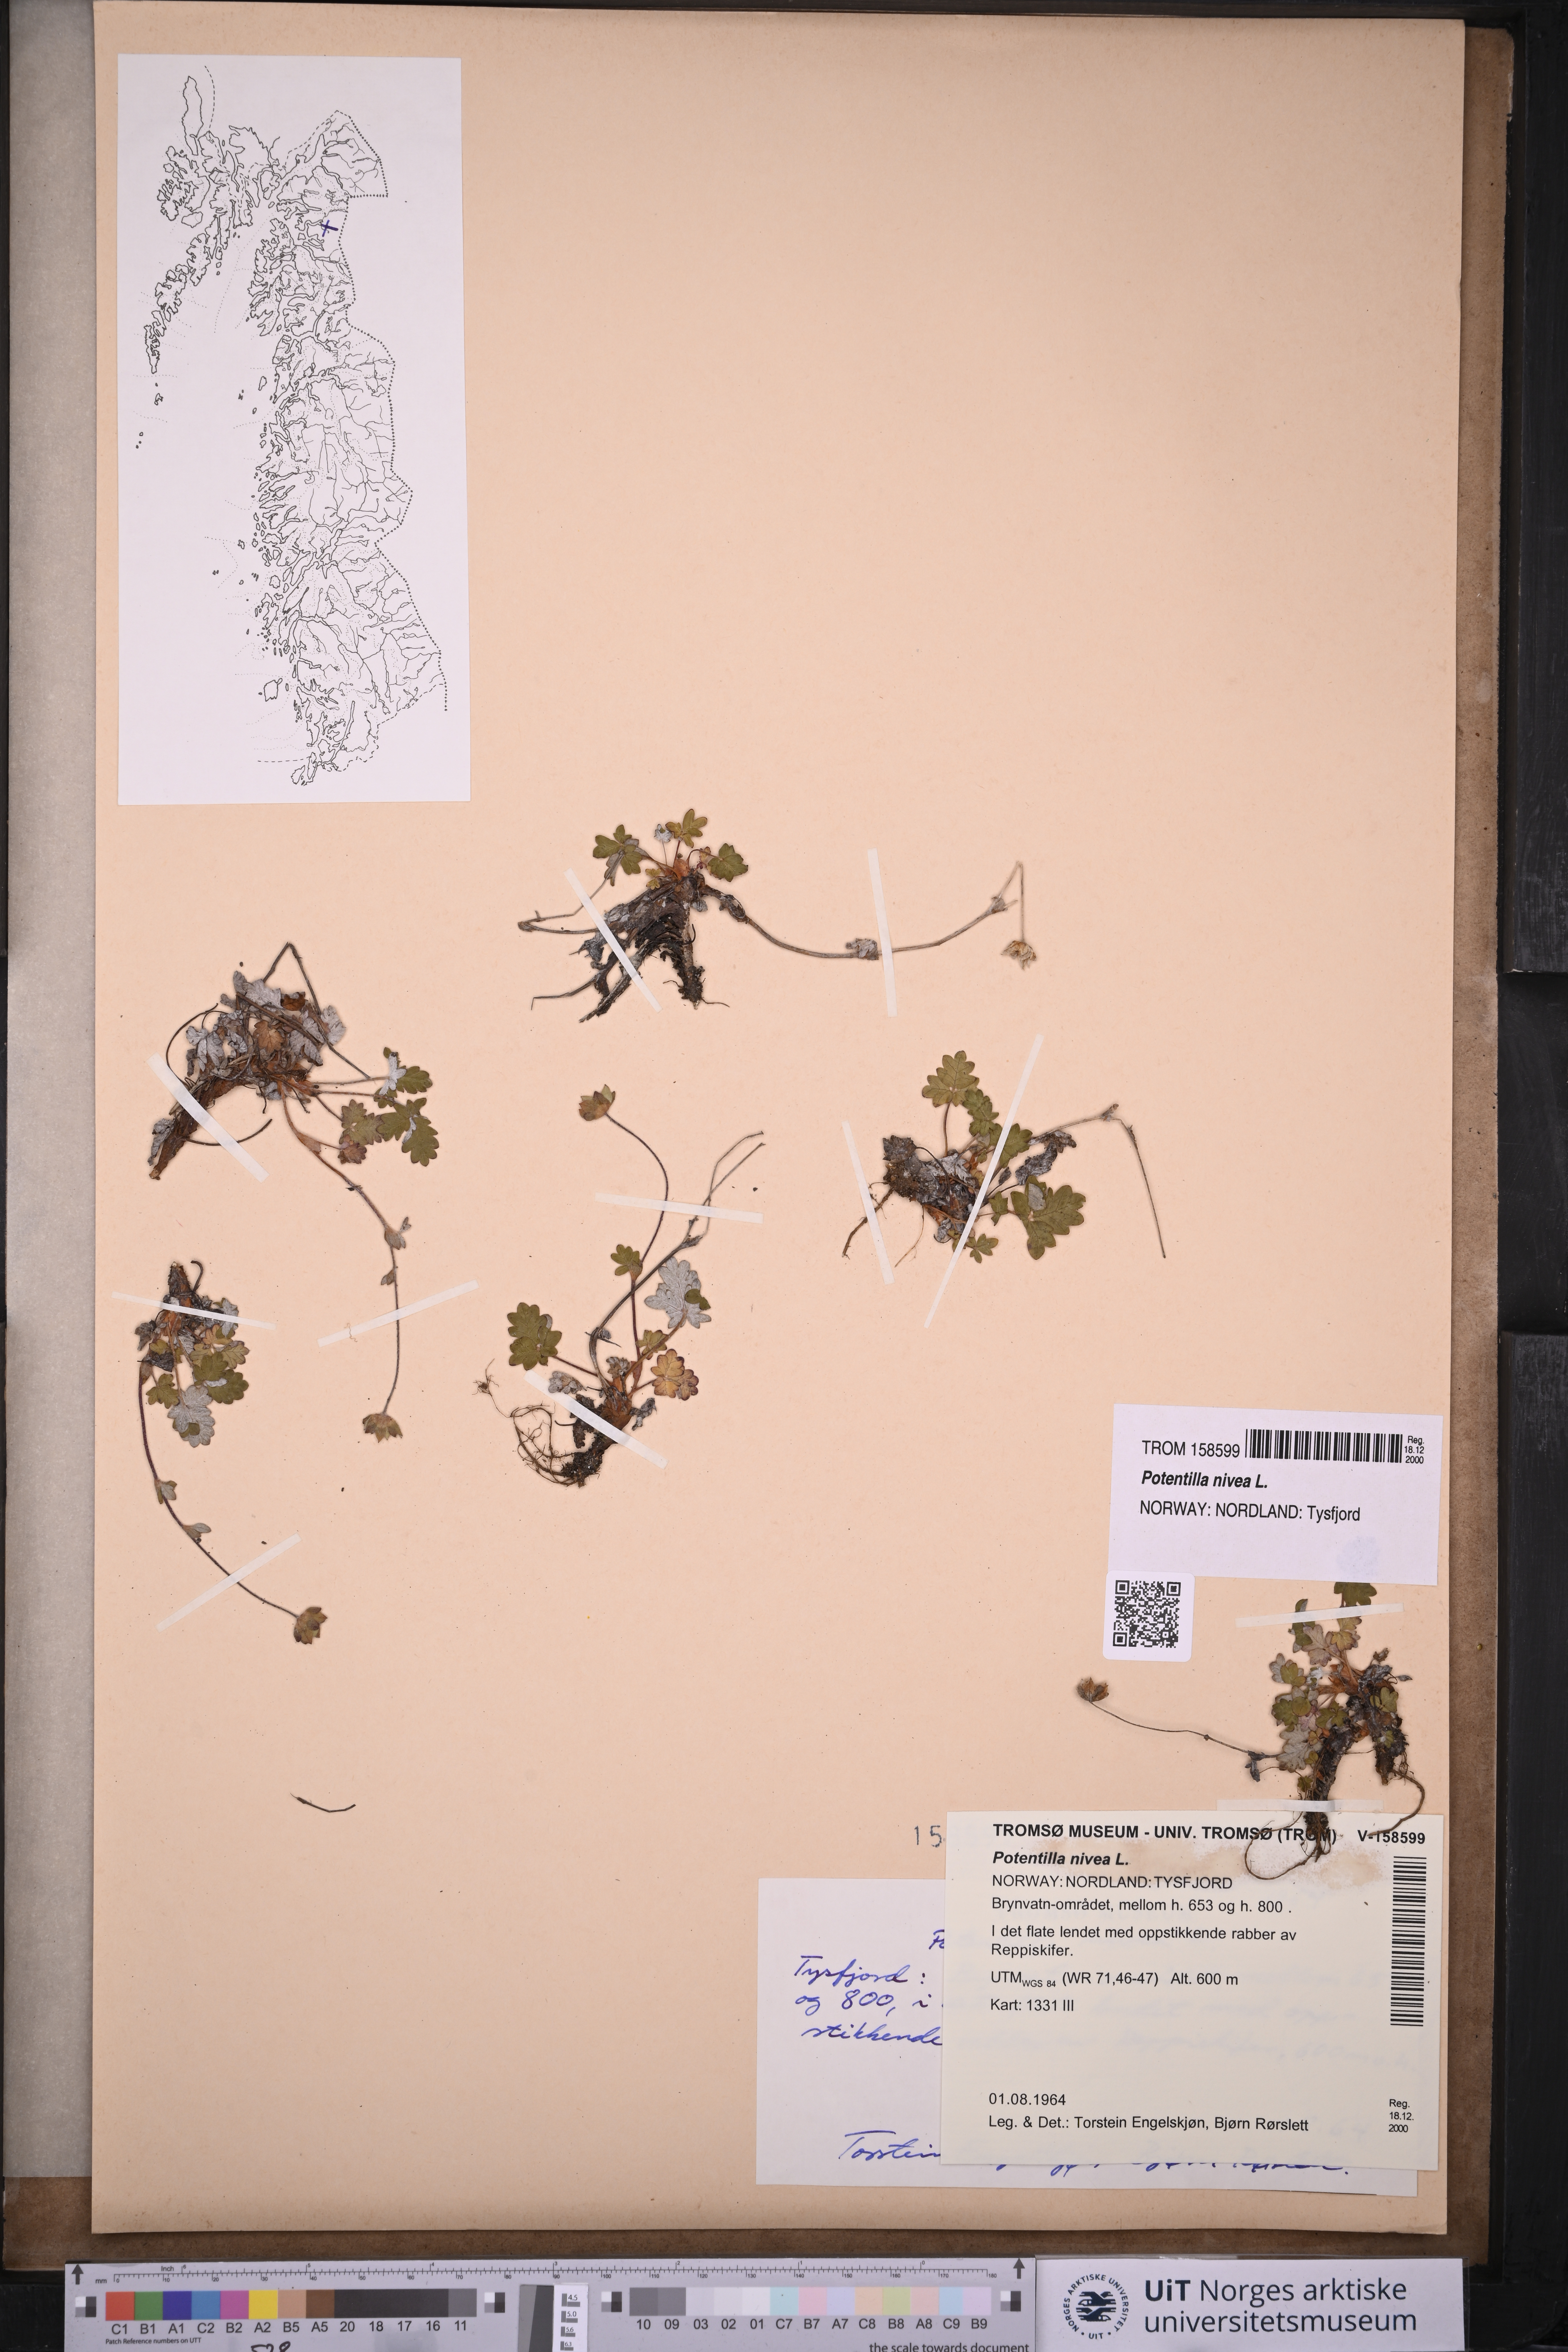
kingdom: Plantae
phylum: Tracheophyta
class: Magnoliopsida
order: Rosales
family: Rosaceae
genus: Potentilla
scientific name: Potentilla arenosa
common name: Bluff cinquefoil
